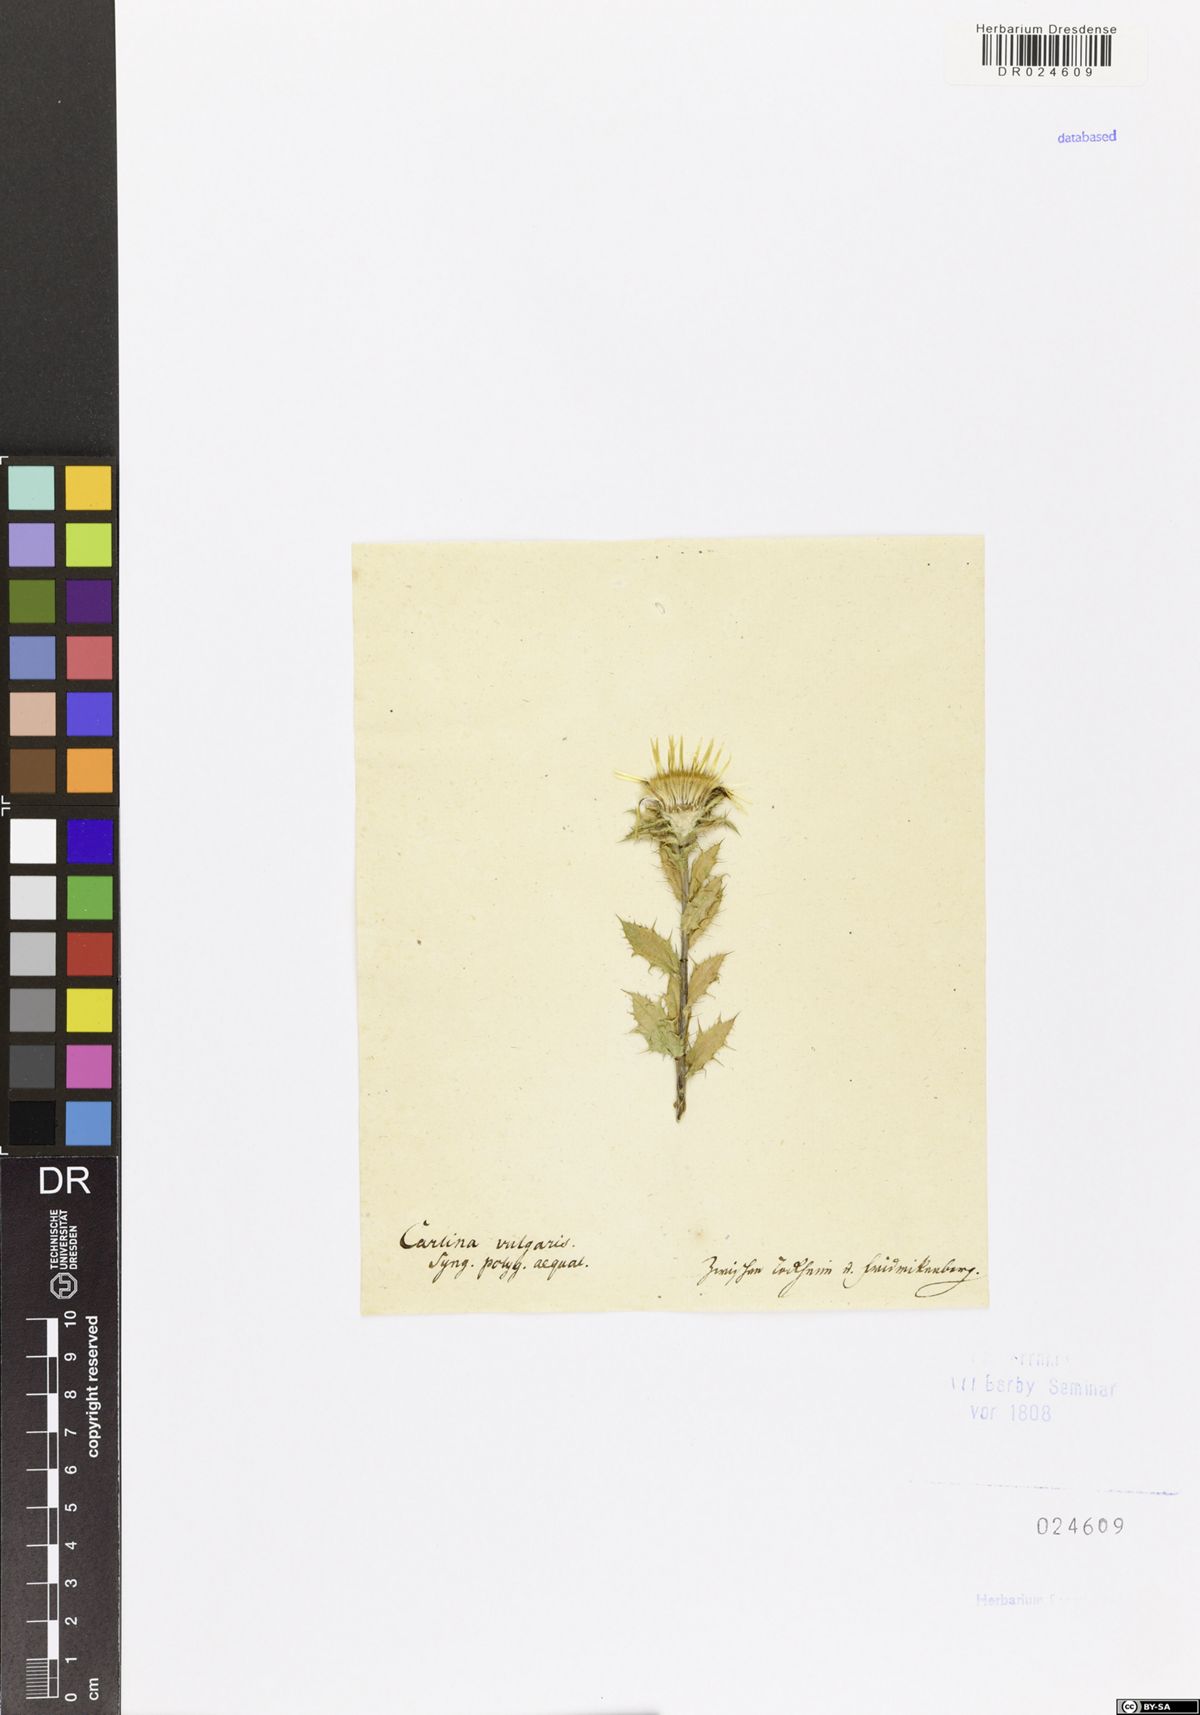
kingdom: Plantae
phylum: Tracheophyta
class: Magnoliopsida
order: Asterales
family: Asteraceae
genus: Carlina
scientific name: Carlina vulgaris
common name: Carline thistle
